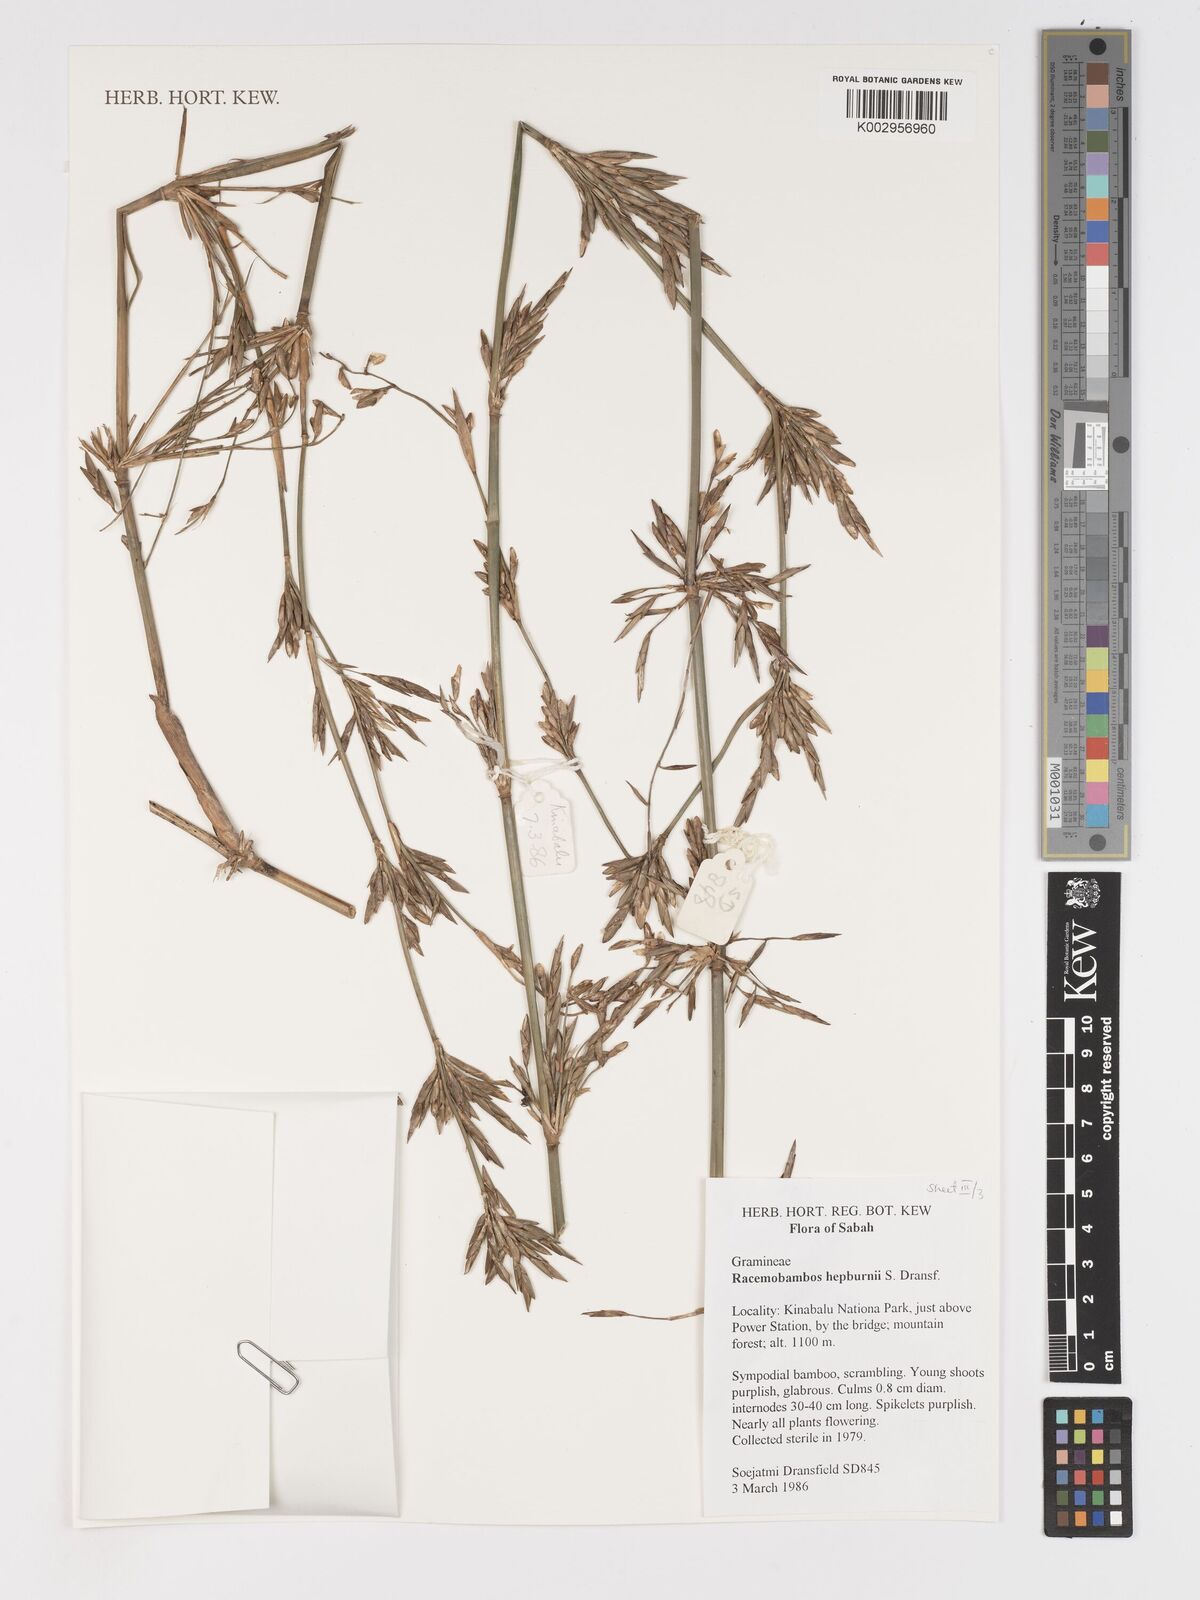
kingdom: Plantae
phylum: Tracheophyta
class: Liliopsida
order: Poales
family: Poaceae
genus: Racemobambos
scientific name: Racemobambos hepburnii
